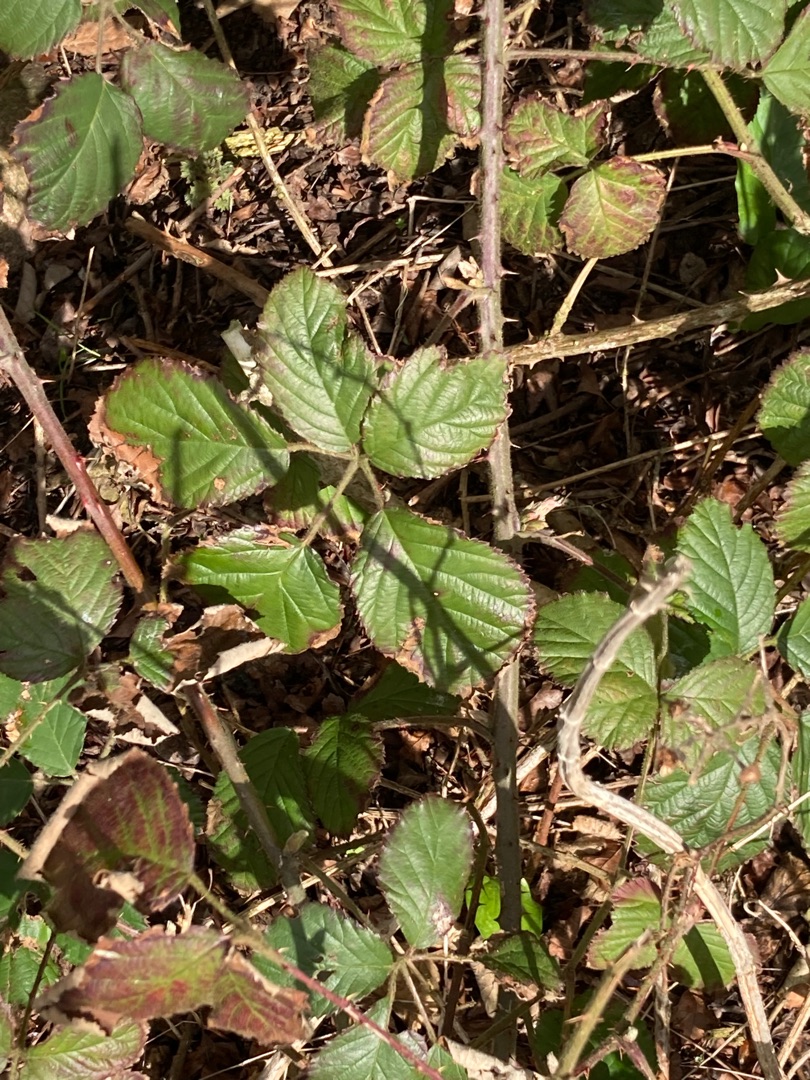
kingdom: Plantae
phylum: Tracheophyta
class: Magnoliopsida
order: Rosales
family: Rosaceae
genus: Rubus
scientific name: Rubus
